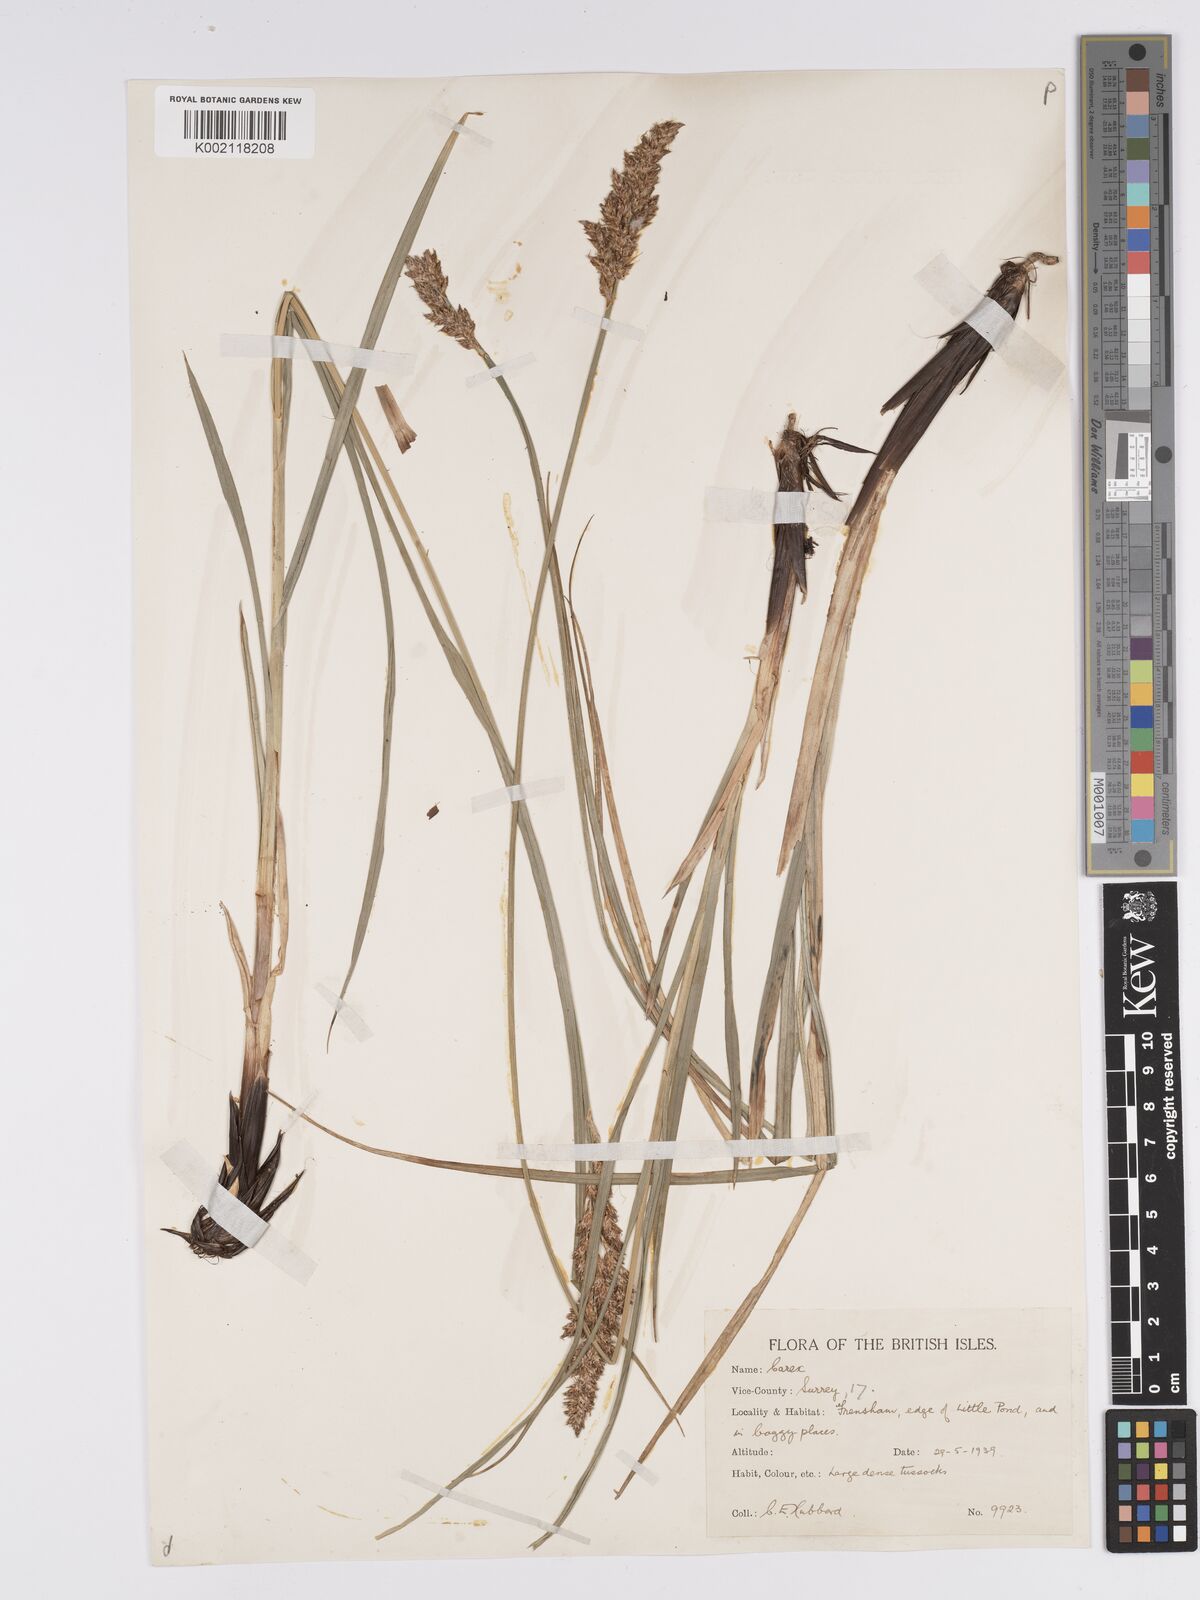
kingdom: Plantae
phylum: Tracheophyta
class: Liliopsida
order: Poales
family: Cyperaceae
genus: Carex
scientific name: Carex paniculata
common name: Greater tussock-sedge
